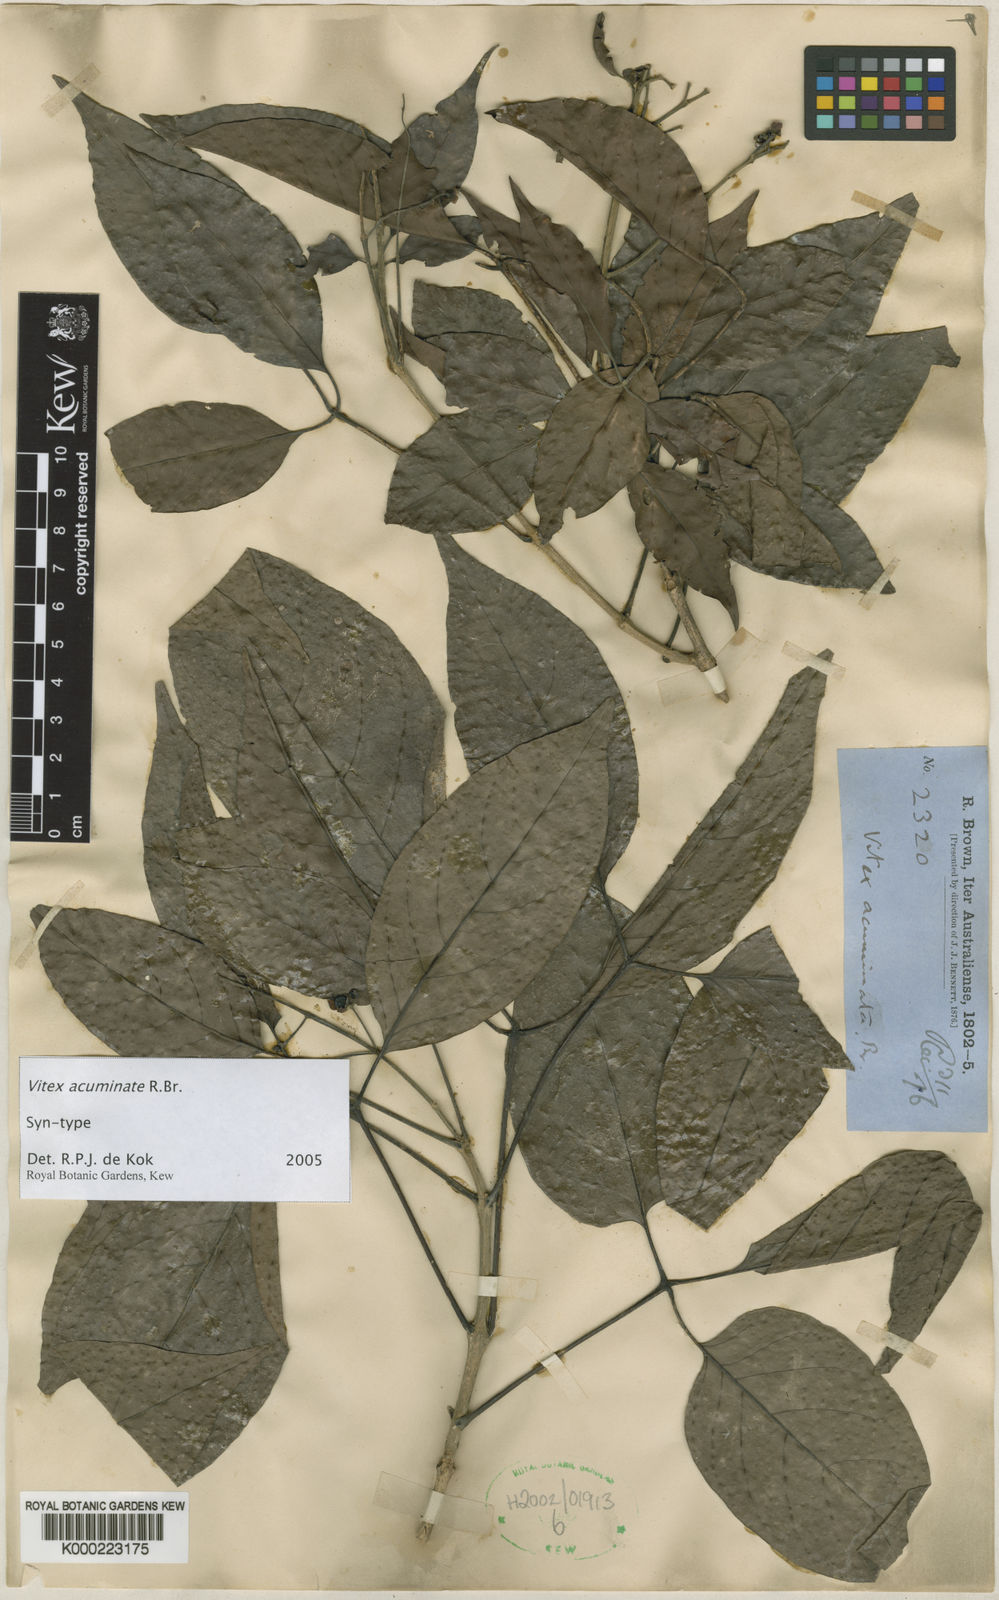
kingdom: Plantae
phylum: Tracheophyta
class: Magnoliopsida
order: Lamiales
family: Lamiaceae
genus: Vitex
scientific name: Vitex acuminata
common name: Black-plum
